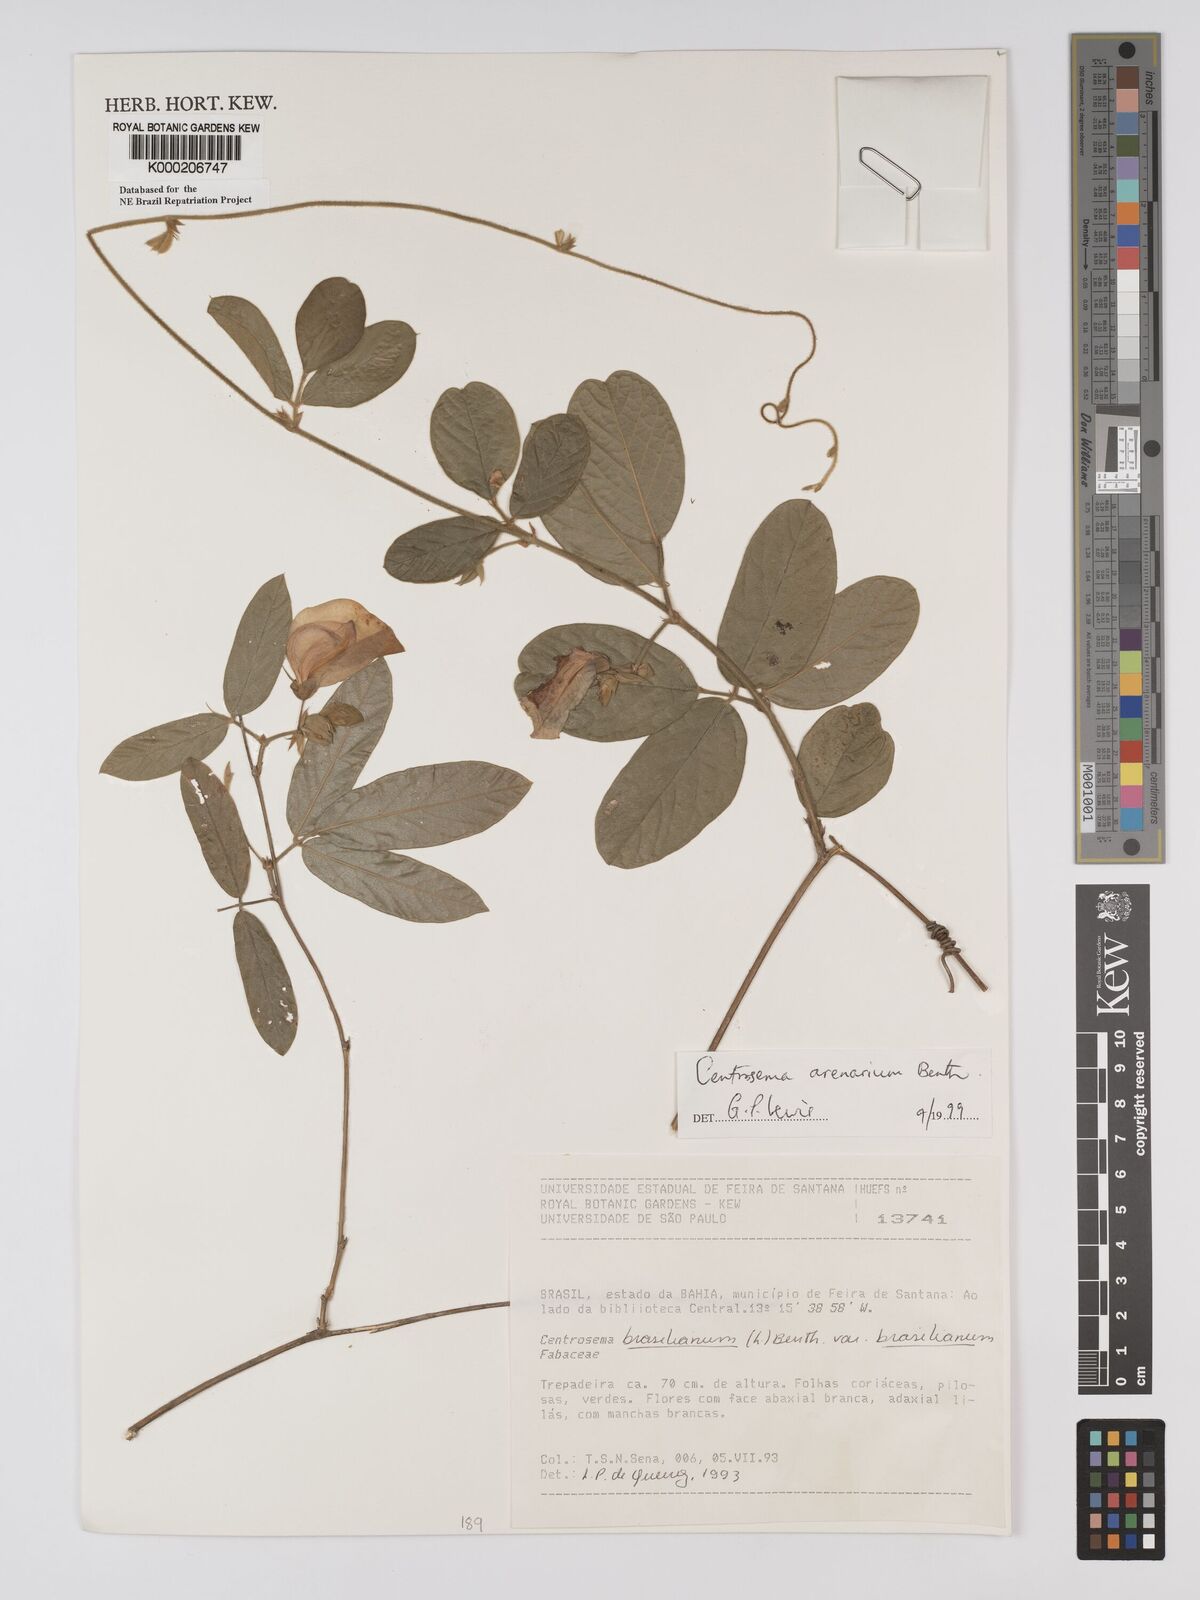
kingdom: Plantae
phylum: Tracheophyta
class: Magnoliopsida
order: Fabales
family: Fabaceae
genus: Centrosema
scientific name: Centrosema arenarium
